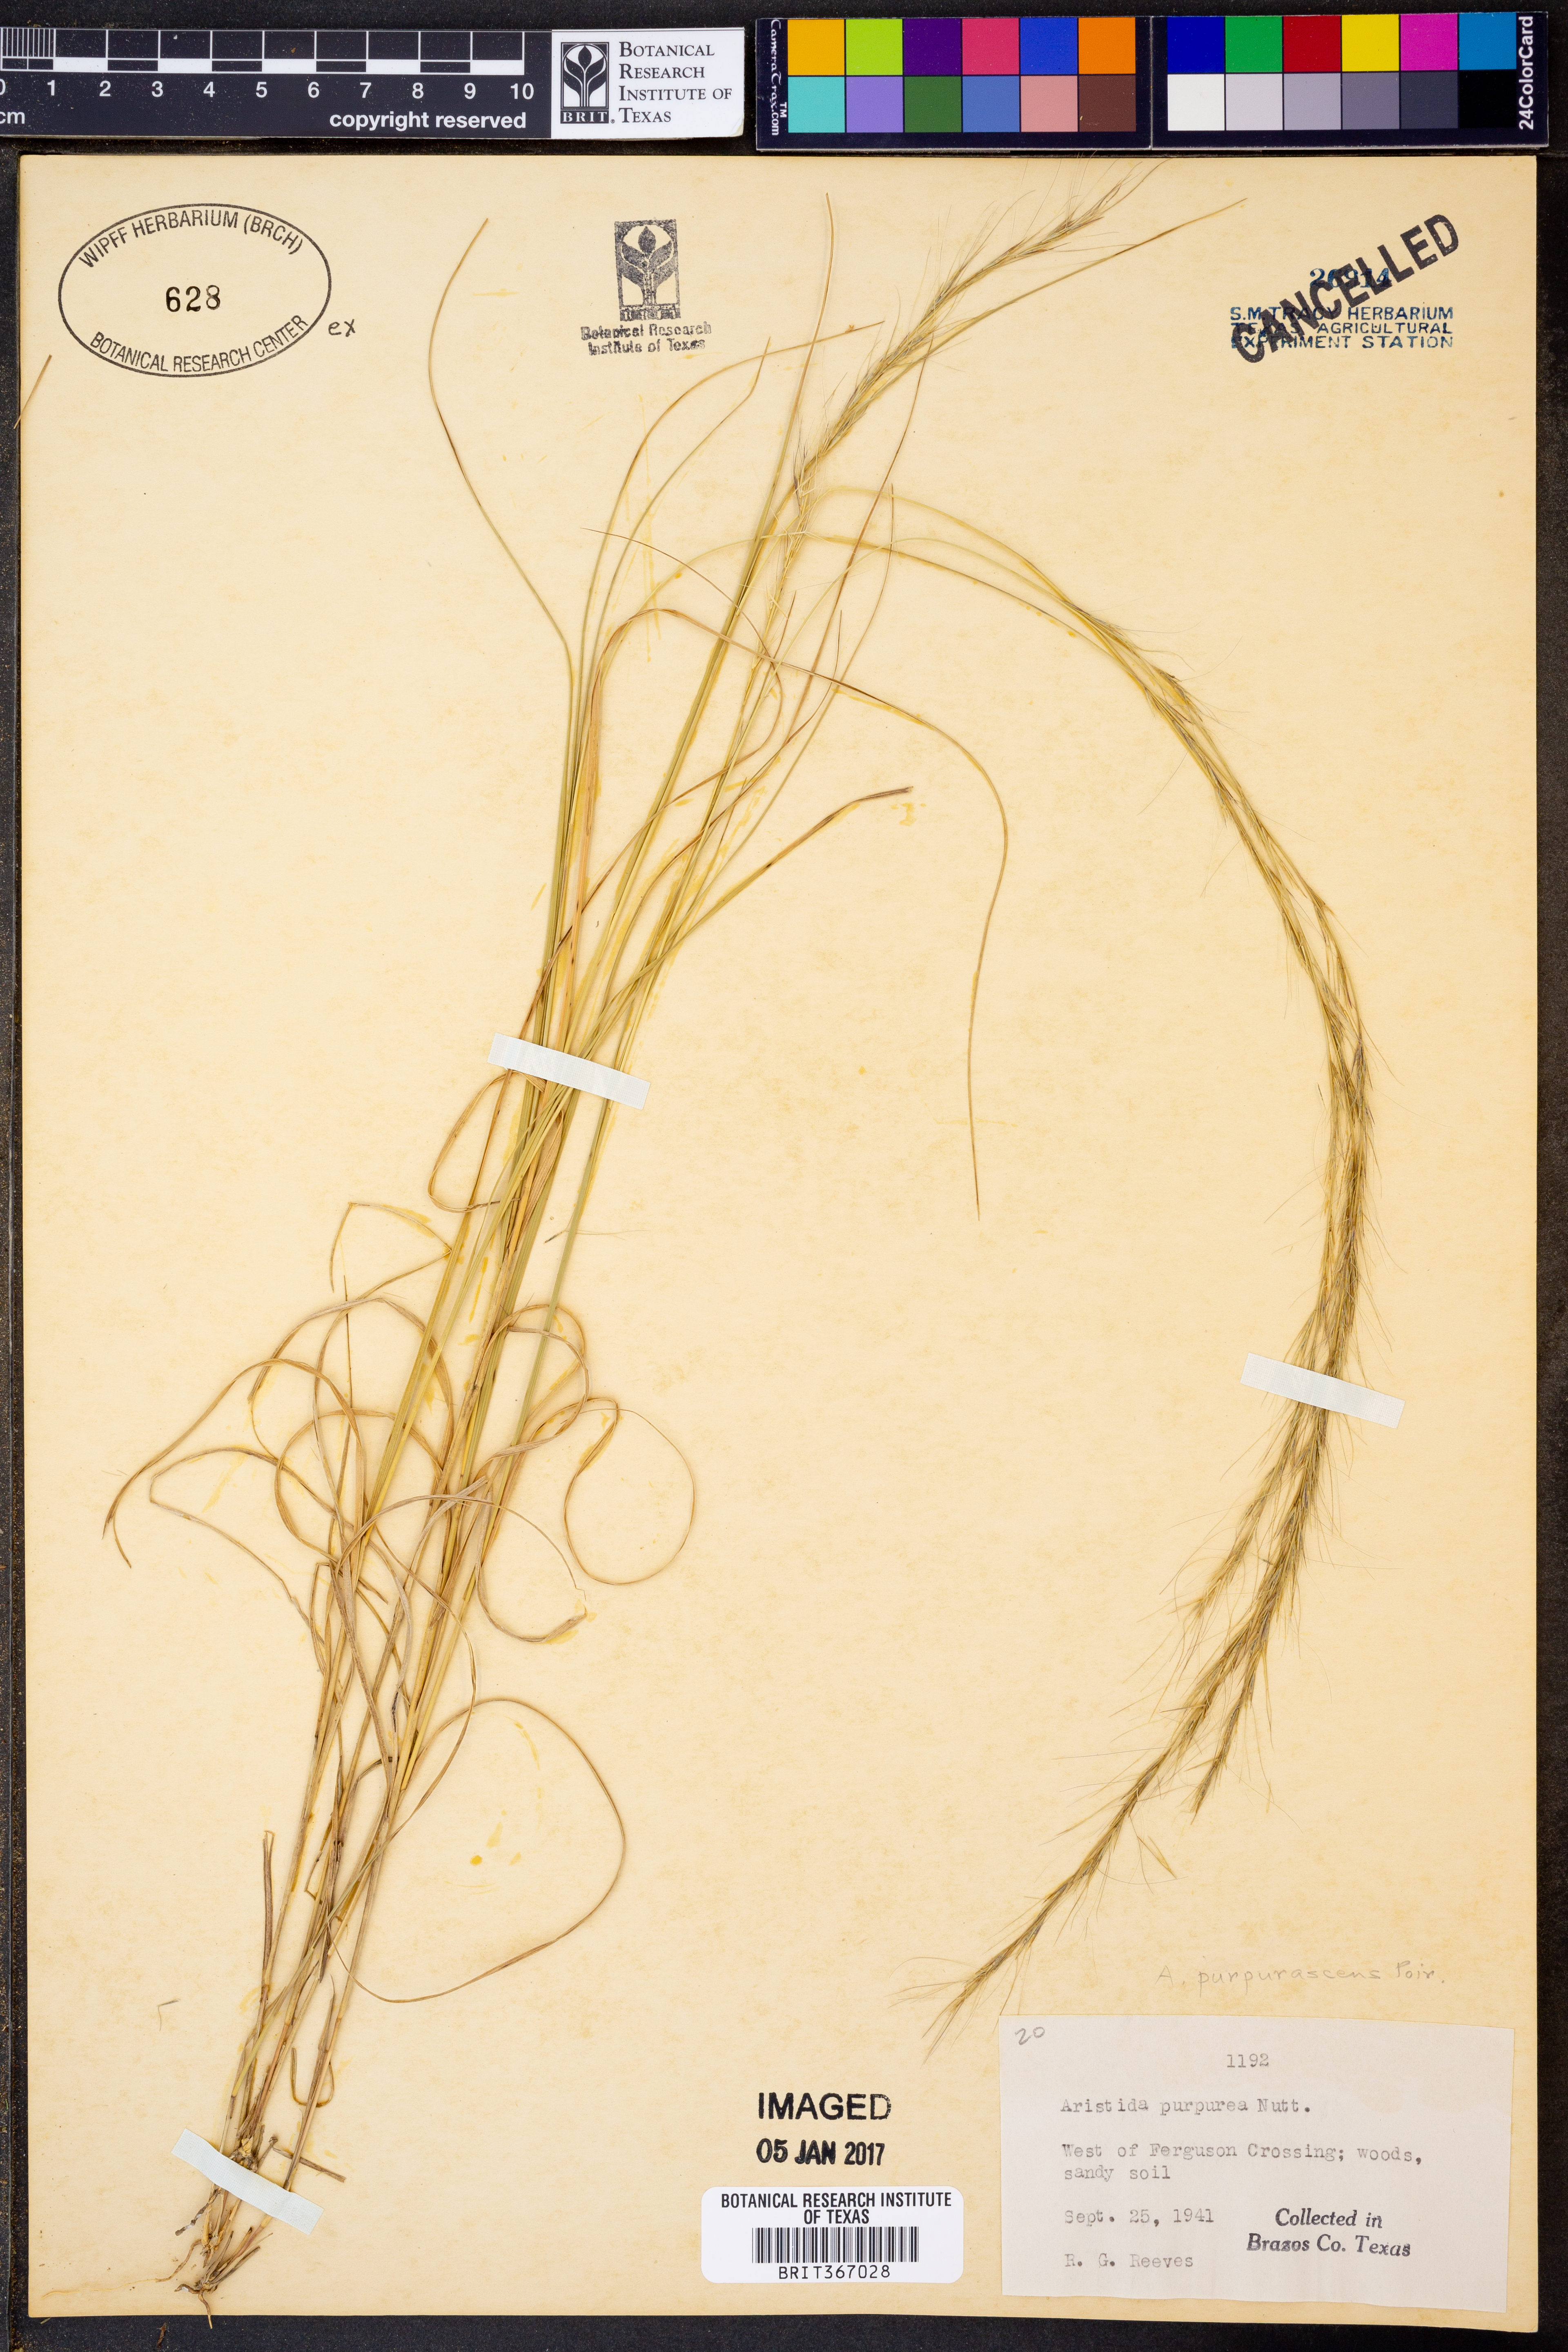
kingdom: Plantae
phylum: Tracheophyta
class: Liliopsida
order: Poales
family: Poaceae
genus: Aristida
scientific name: Aristida purpurascens
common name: Arrow-feather
